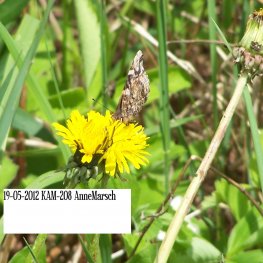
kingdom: Animalia
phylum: Arthropoda
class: Insecta
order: Lepidoptera
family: Nymphalidae
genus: Vanessa
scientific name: Vanessa atalanta
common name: Red Admiral
